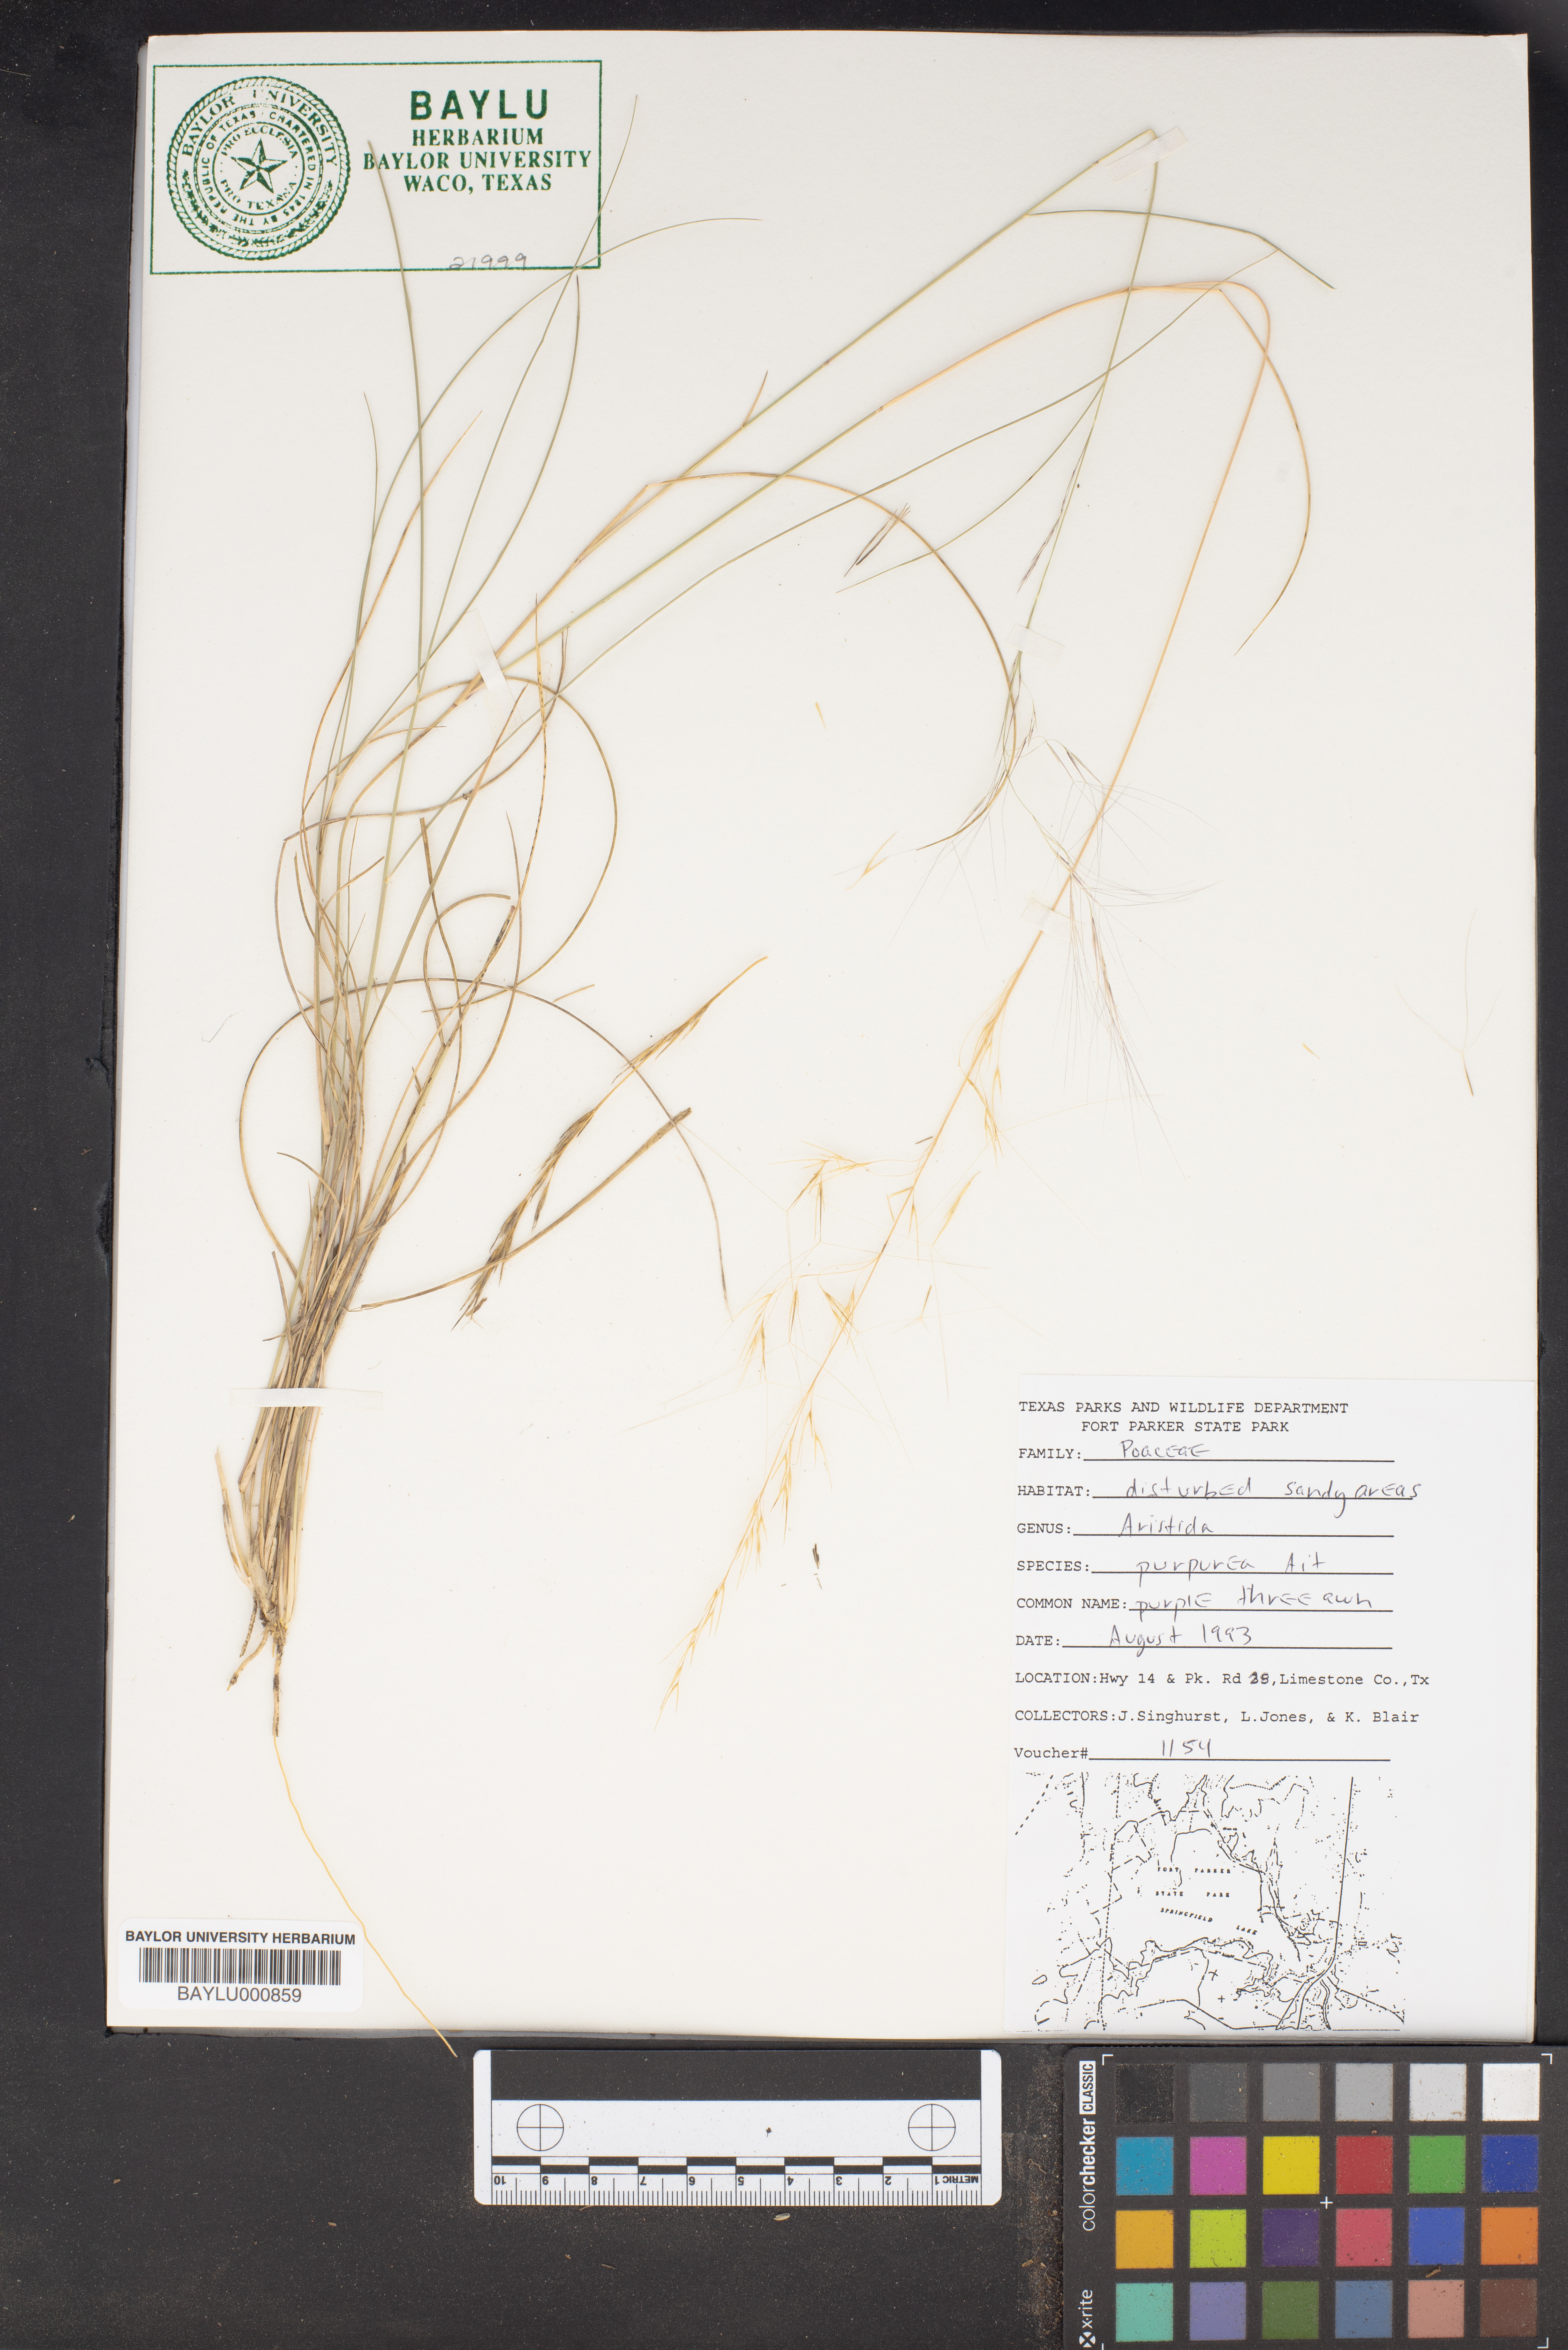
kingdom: Plantae
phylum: Tracheophyta
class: Liliopsida
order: Poales
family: Poaceae
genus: Aristida
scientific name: Aristida purpurea
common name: Purple threeawn
